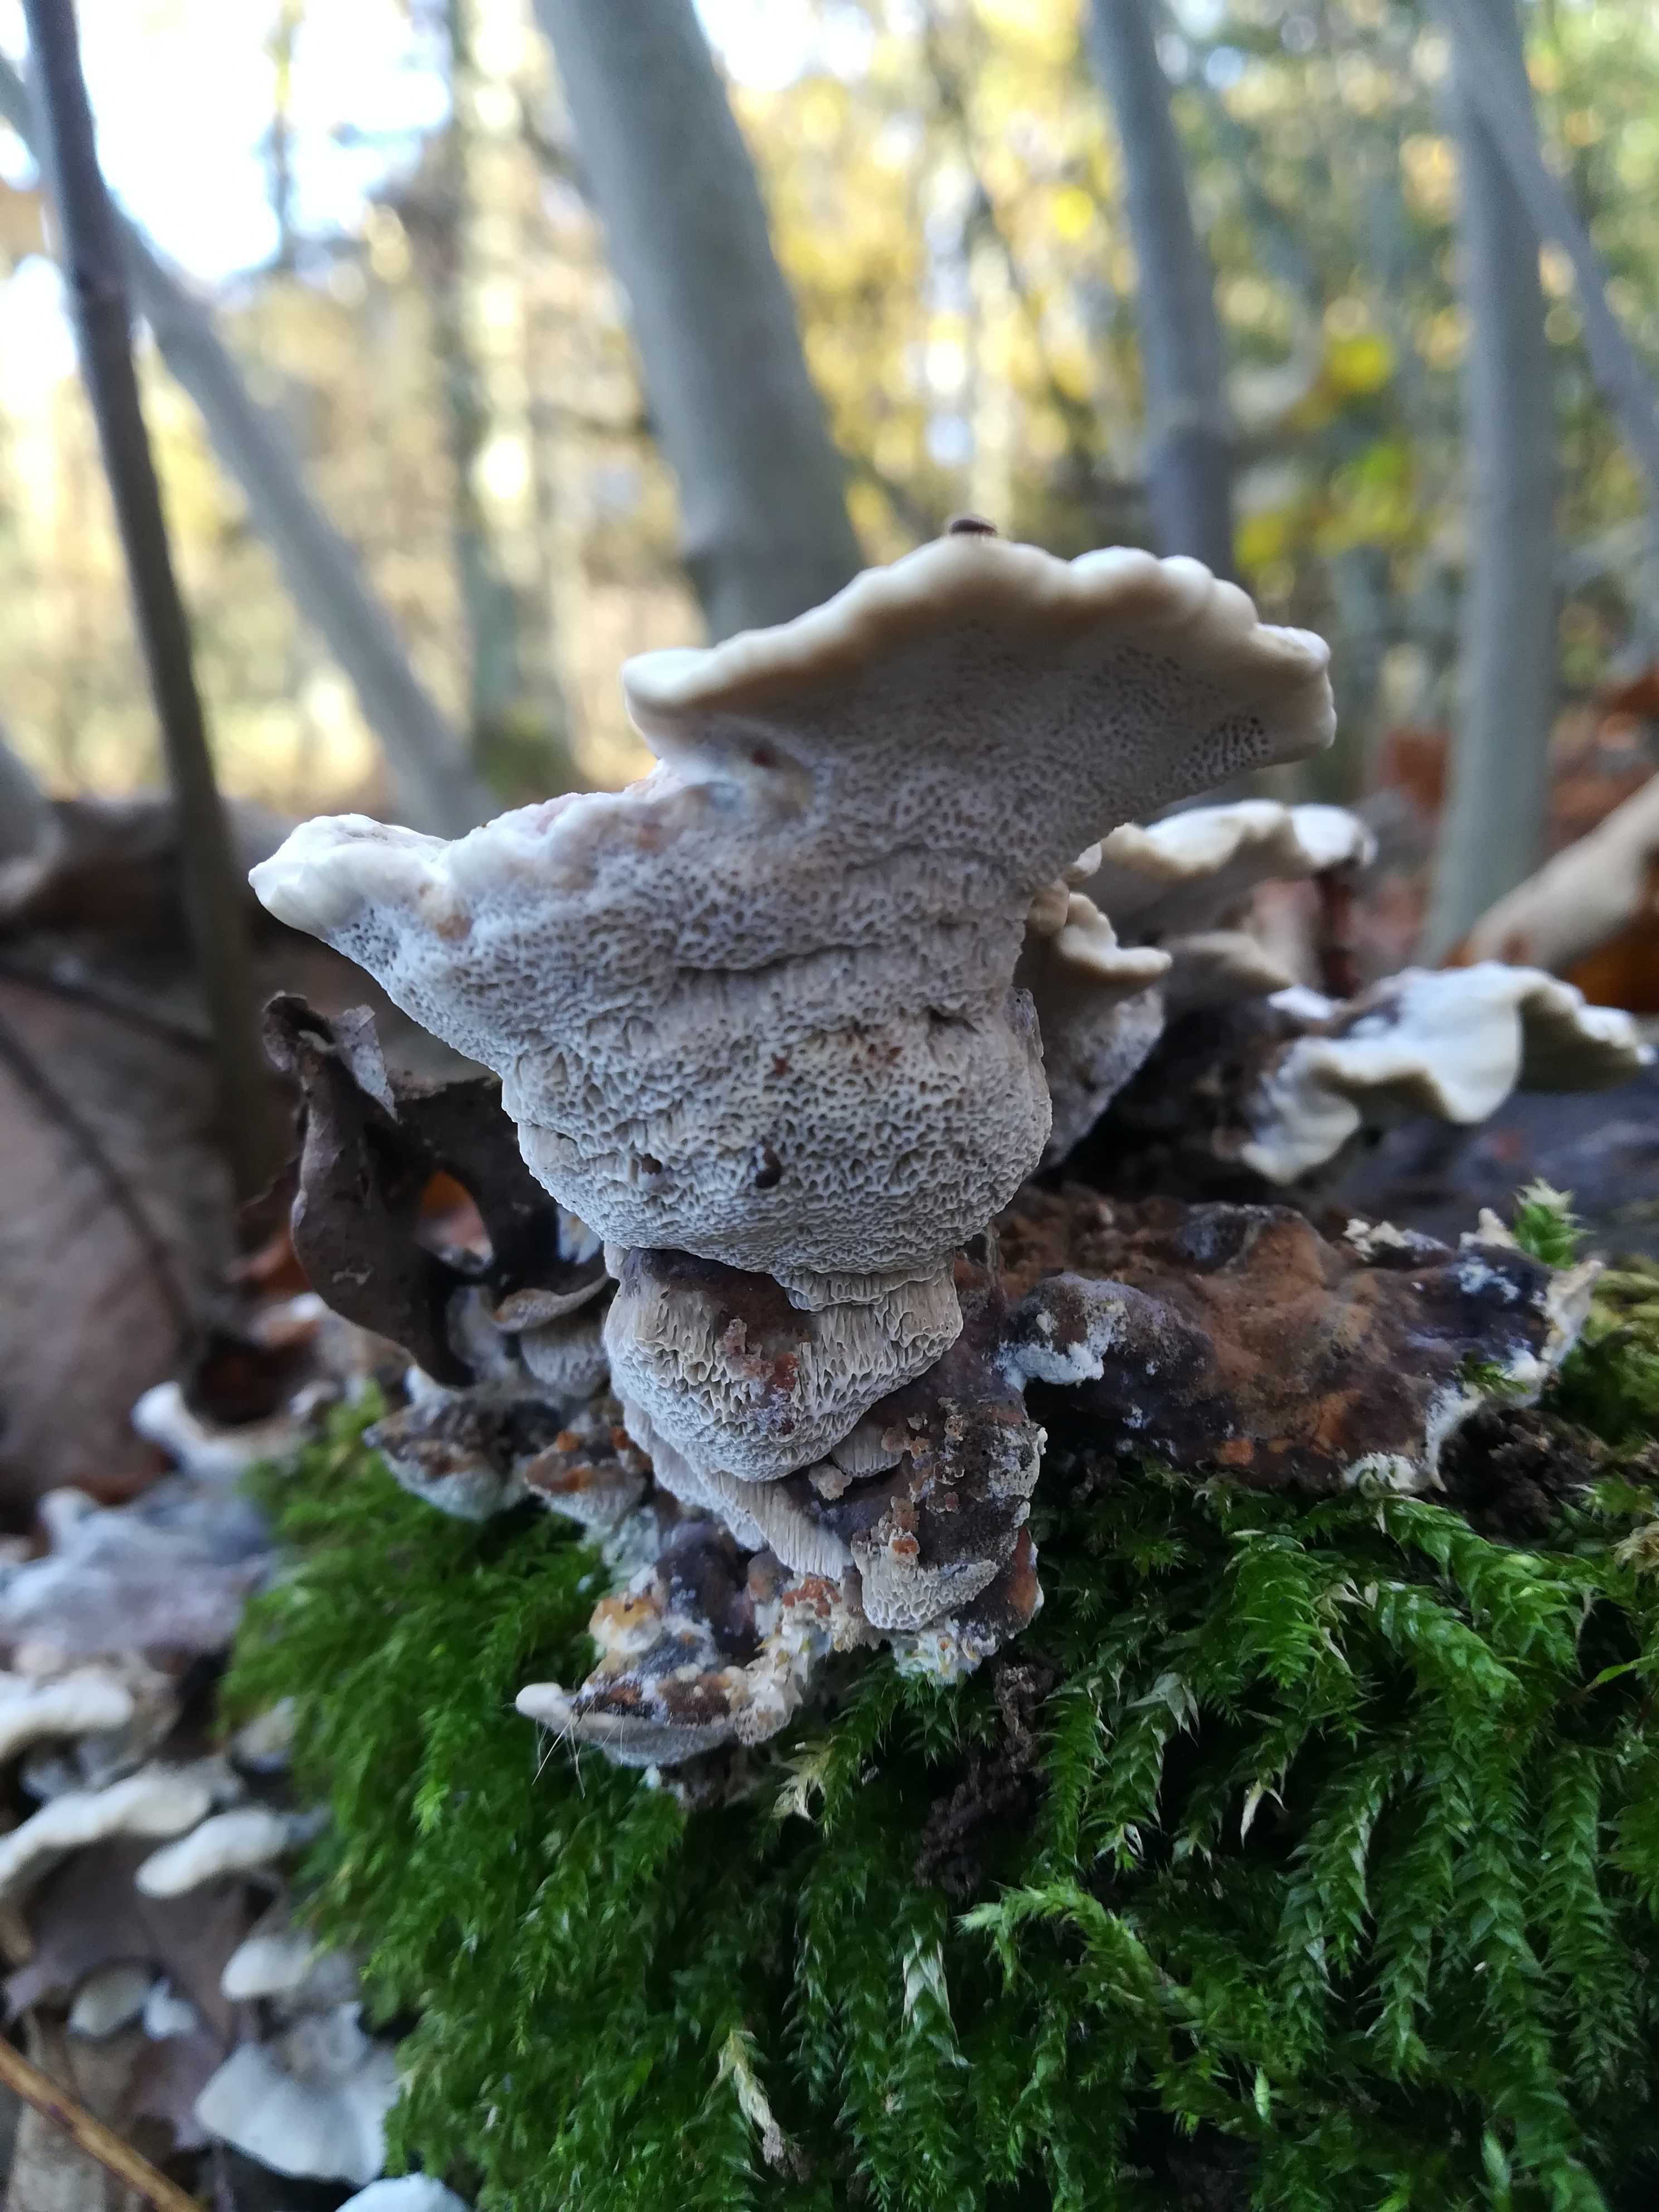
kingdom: Fungi
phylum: Basidiomycota
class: Agaricomycetes
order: Polyporales
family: Phanerochaetaceae
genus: Bjerkandera
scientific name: Bjerkandera fumosa
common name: grågul sodporesvamp
